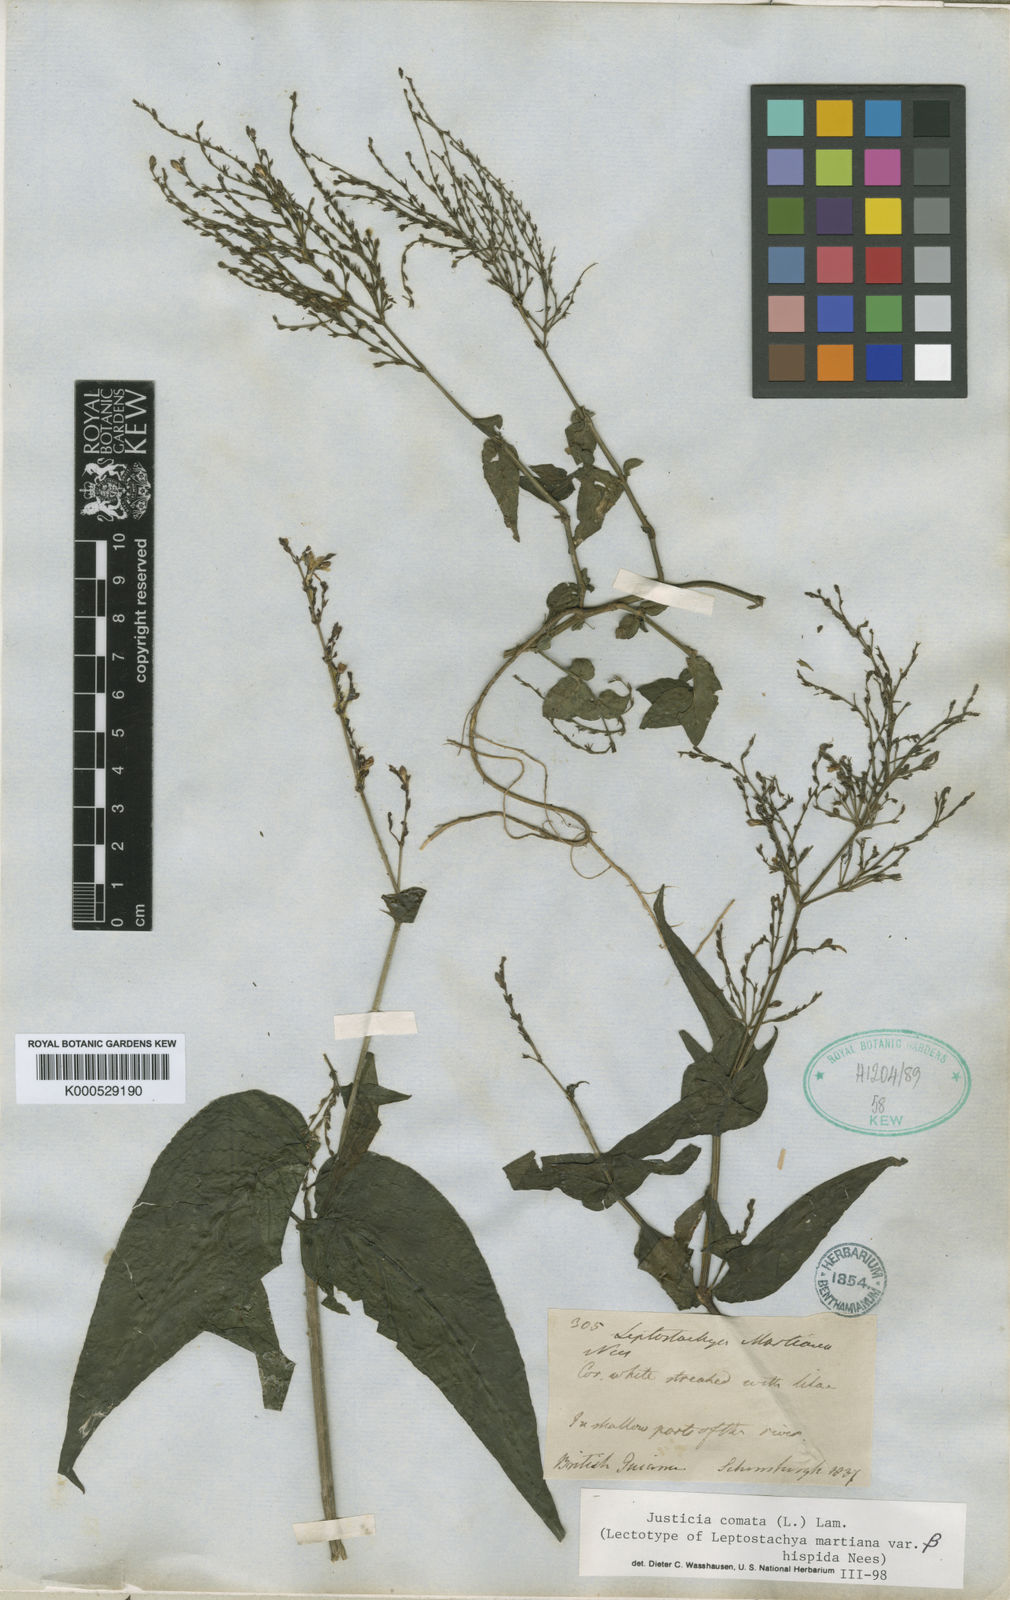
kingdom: Plantae
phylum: Tracheophyta
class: Magnoliopsida
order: Lamiales
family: Acanthaceae
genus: Dianthera
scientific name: Dianthera comata
